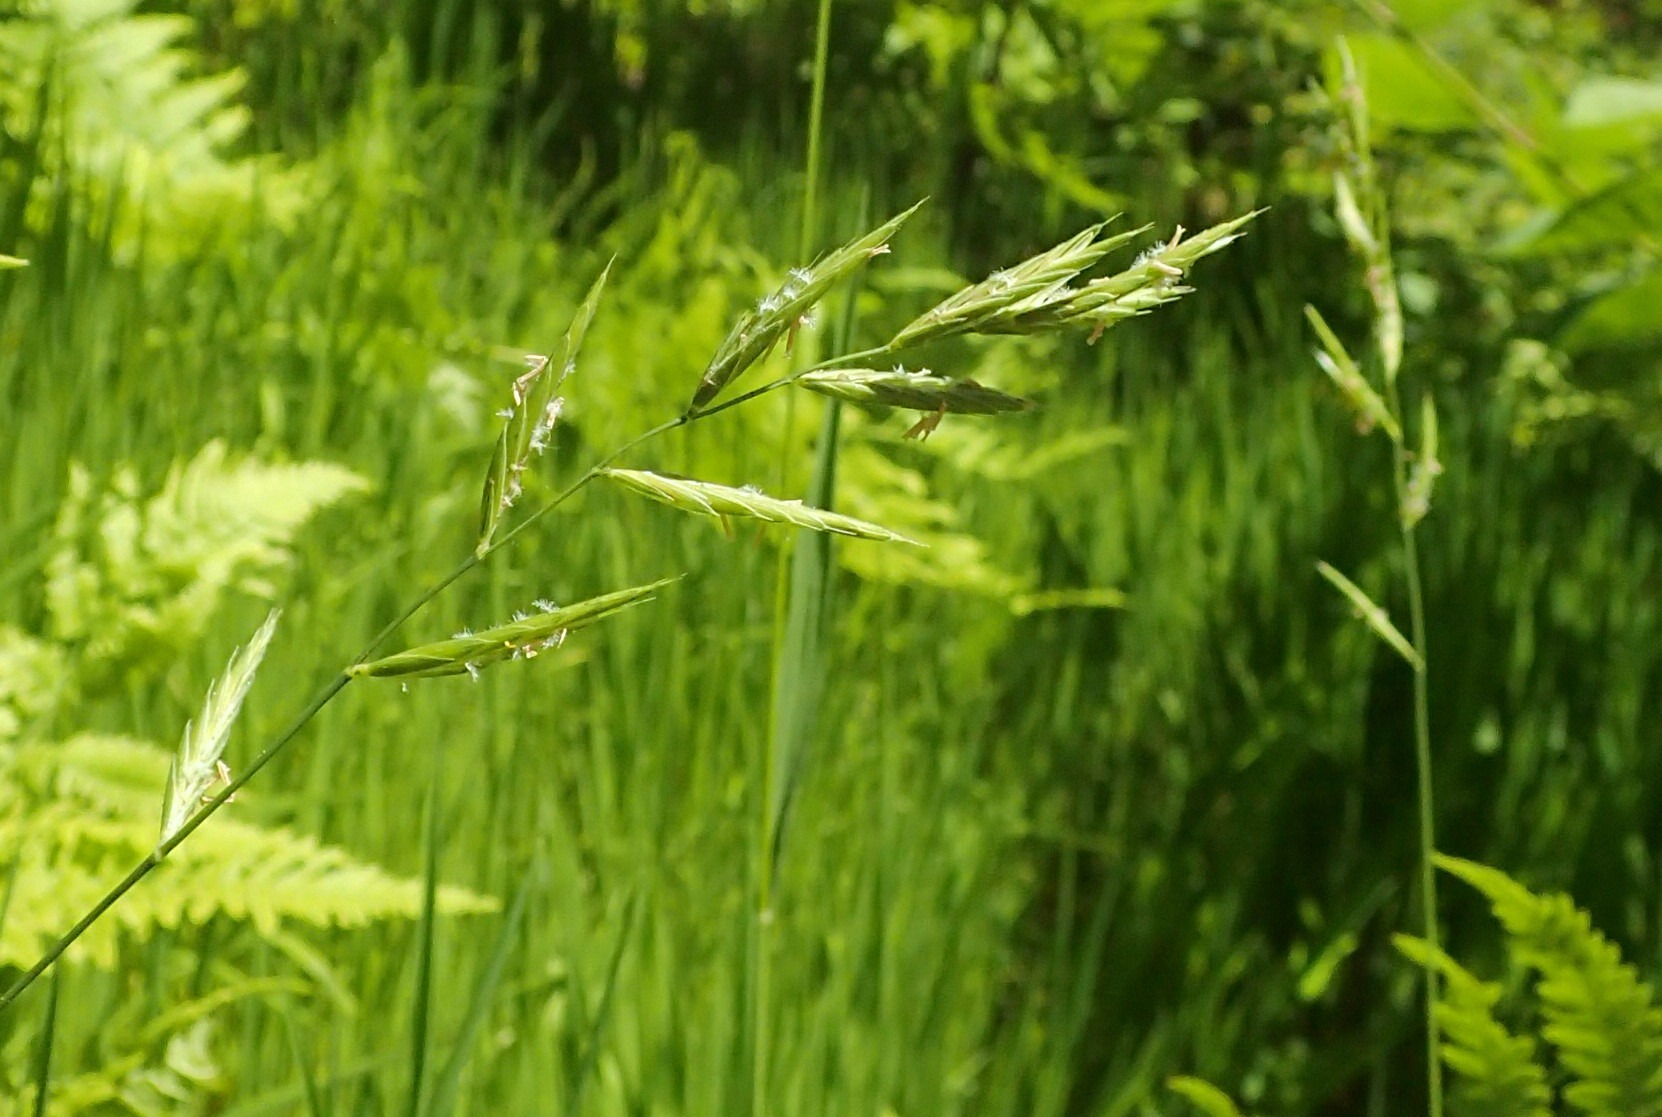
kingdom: Plantae
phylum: Tracheophyta
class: Liliopsida
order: Poales
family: Poaceae
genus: Brachypodium
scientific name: Brachypodium pinnatum
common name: Bakke-stilkaks
